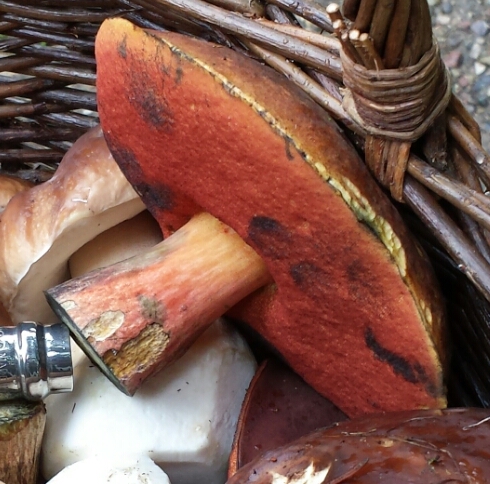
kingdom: Fungi
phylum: Basidiomycota
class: Agaricomycetes
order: Boletales
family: Boletaceae
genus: Neoboletus
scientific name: Neoboletus erythropus
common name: punktstokket indigorørhat
